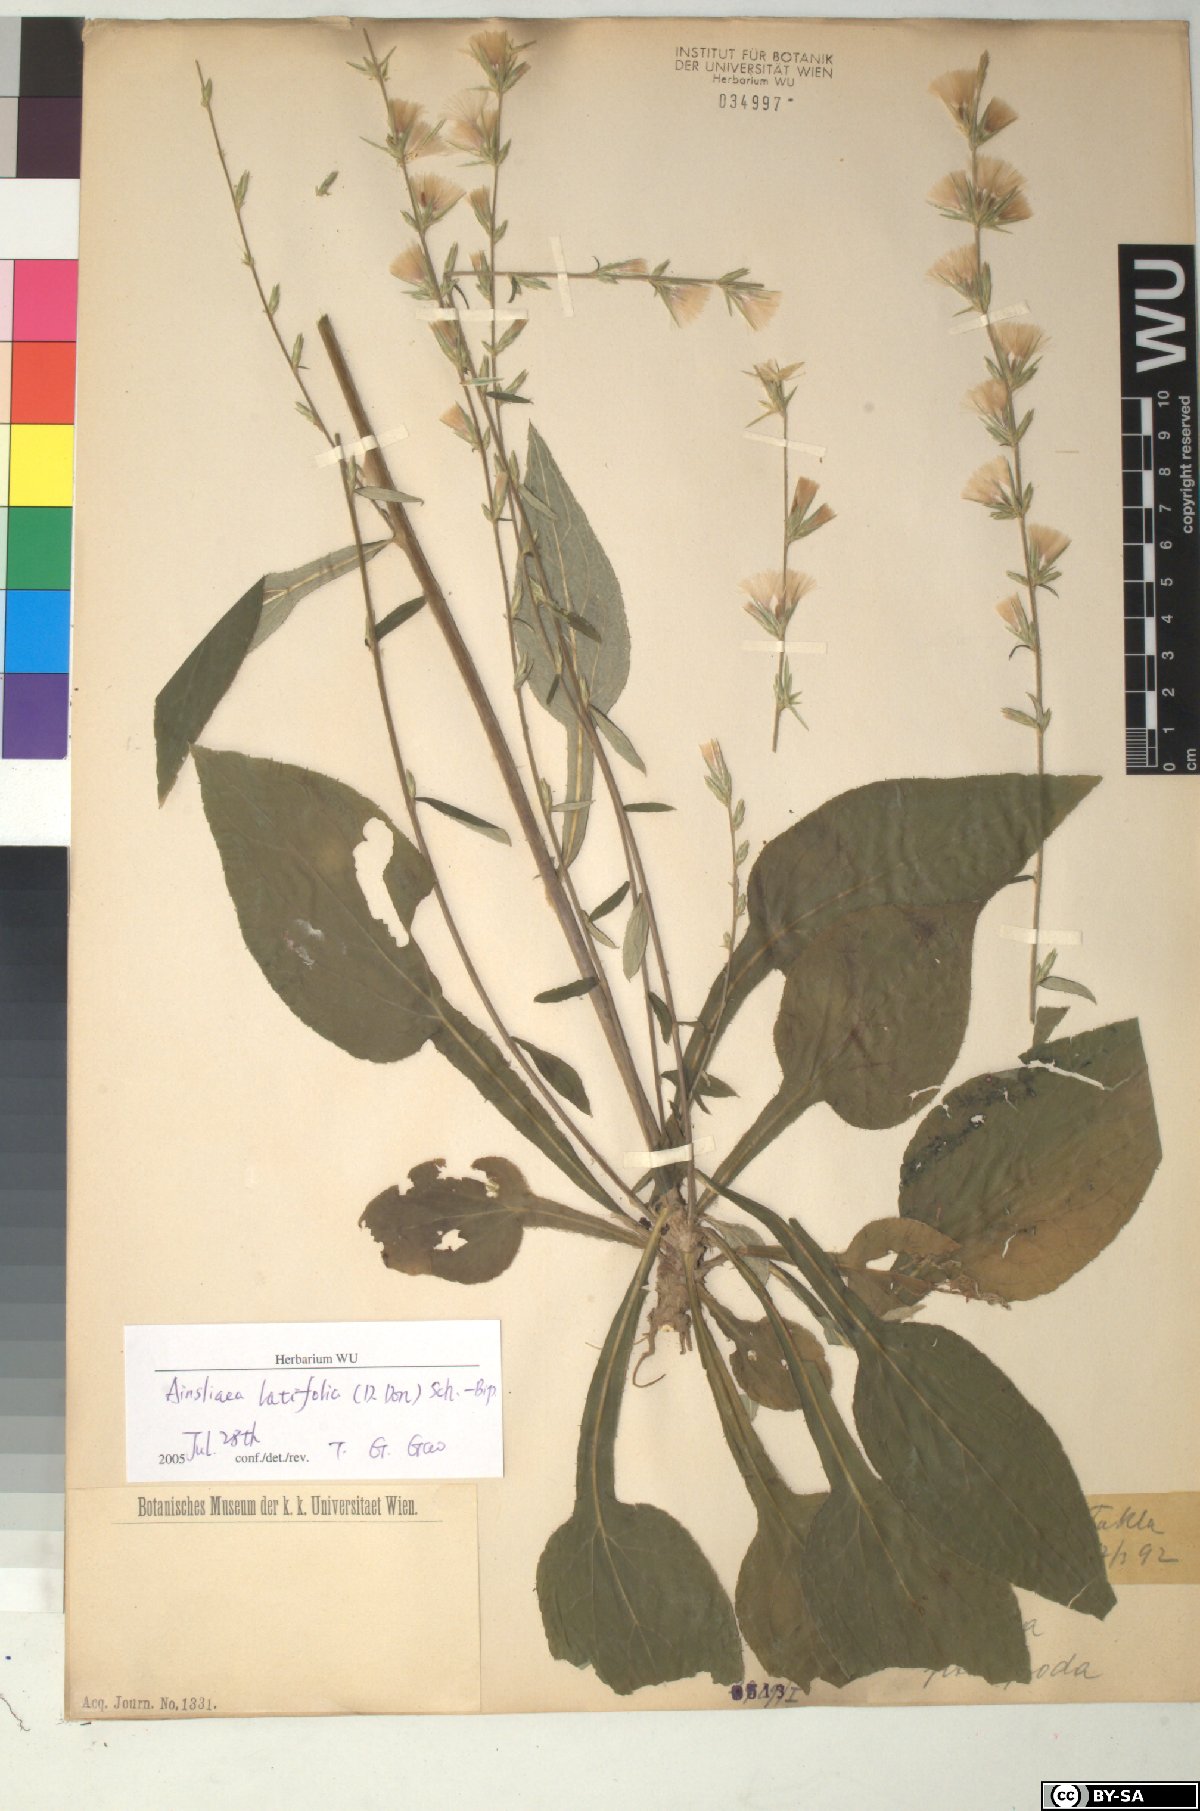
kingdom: Plantae
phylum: Tracheophyta
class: Magnoliopsida
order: Asterales
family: Asteraceae
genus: Ainsliaea
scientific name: Ainsliaea latifolia
